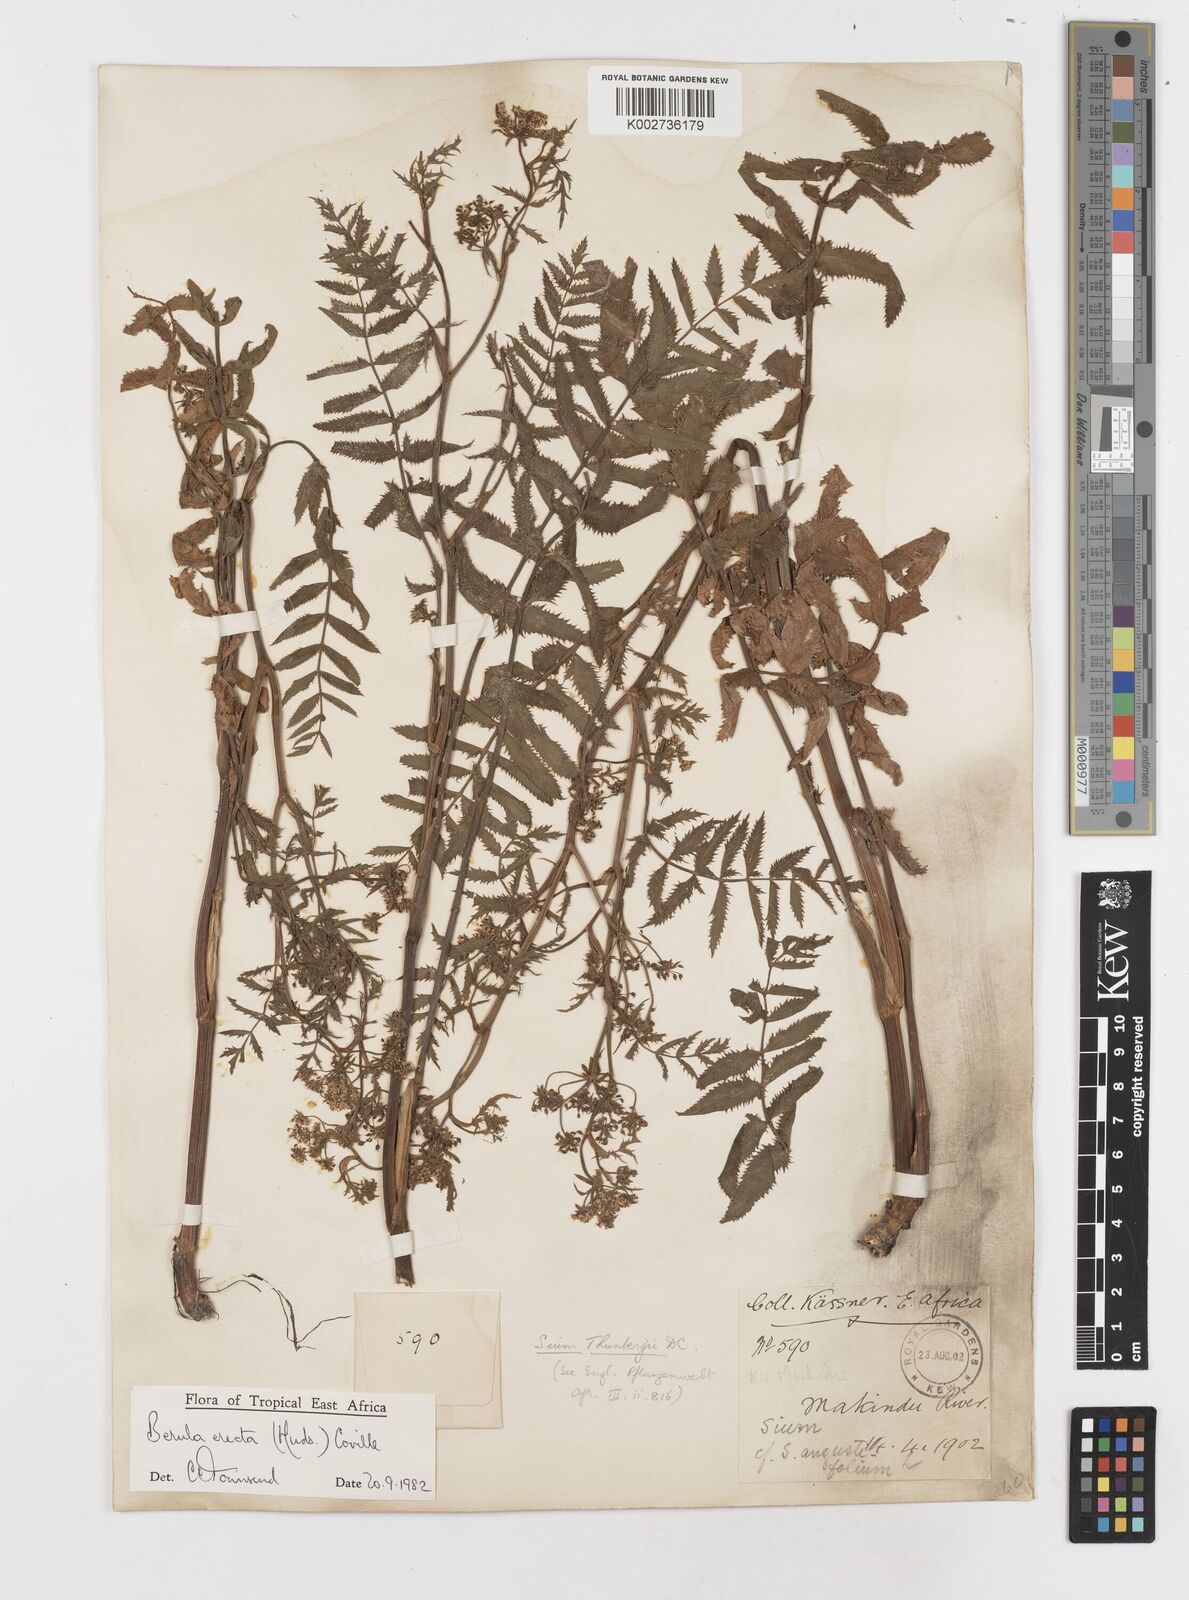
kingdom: Plantae
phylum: Tracheophyta
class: Magnoliopsida
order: Apiales
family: Apiaceae
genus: Berula
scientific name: Berula erecta
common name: Lesser water-parsnip
